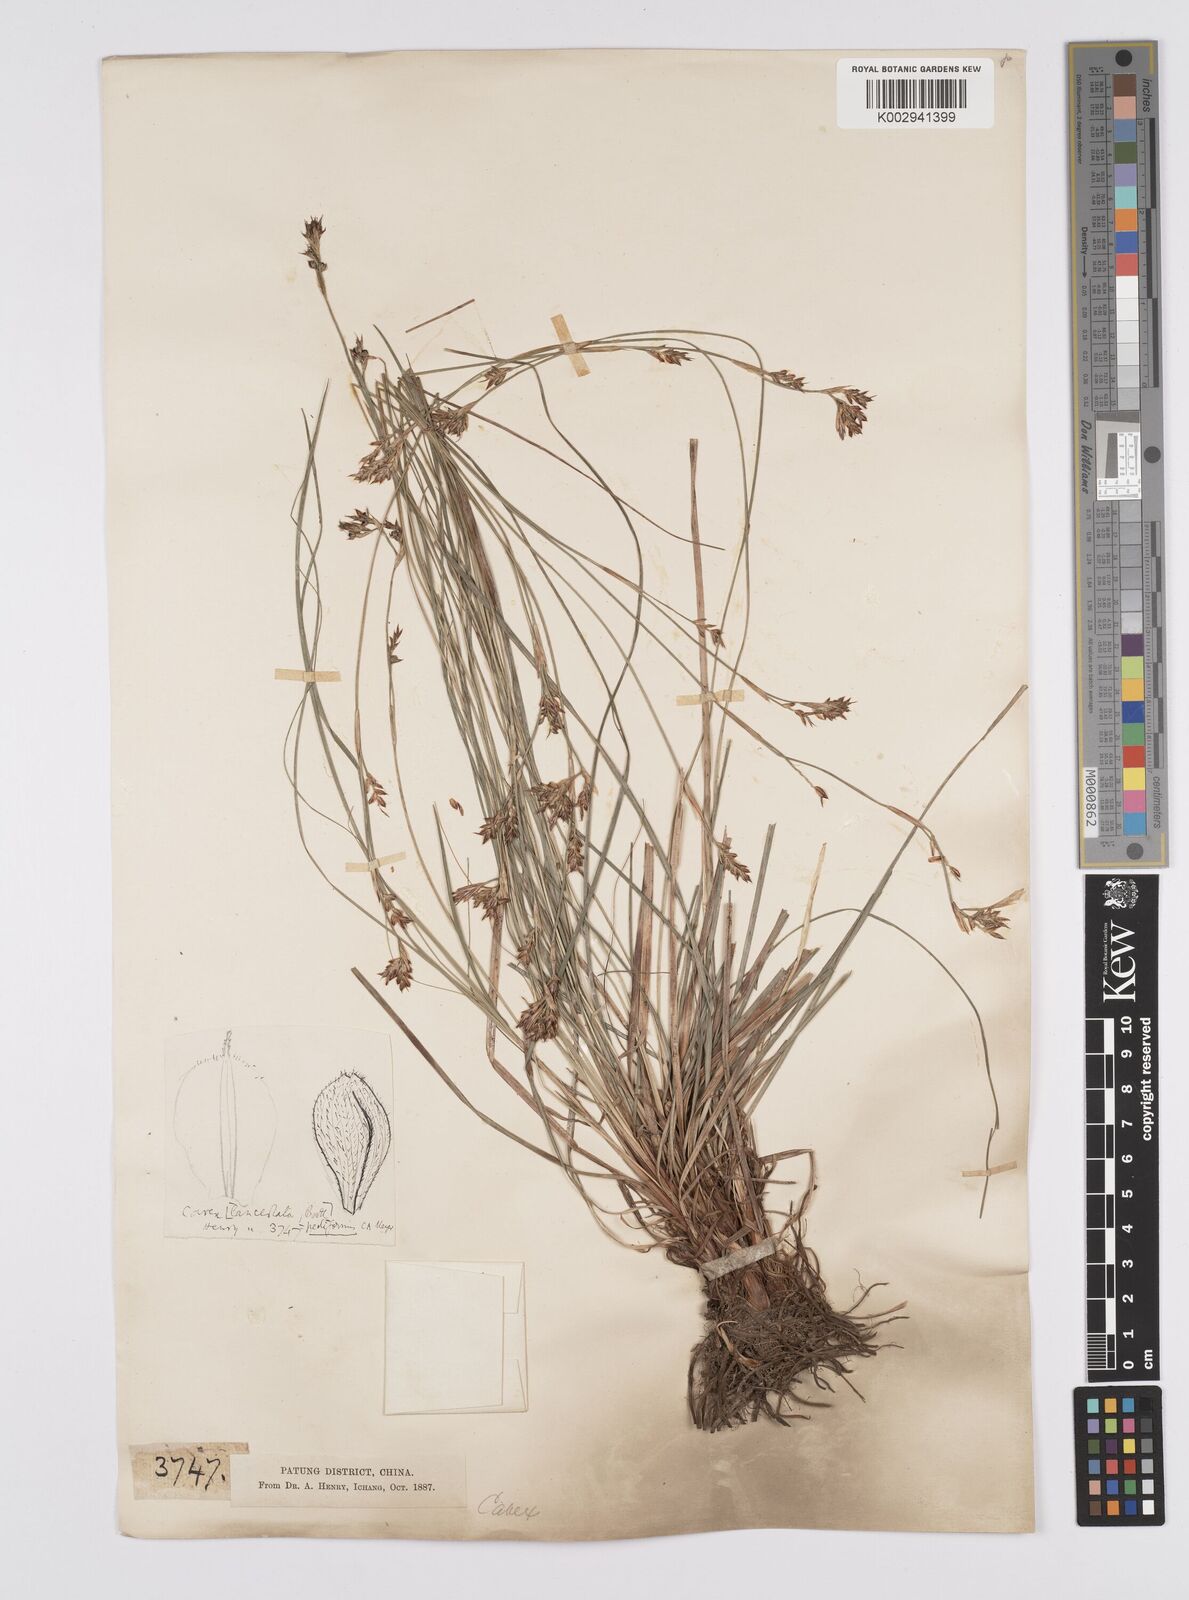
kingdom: Plantae
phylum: Tracheophyta
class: Liliopsida
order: Poales
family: Cyperaceae
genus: Carex
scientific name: Carex pediformis
